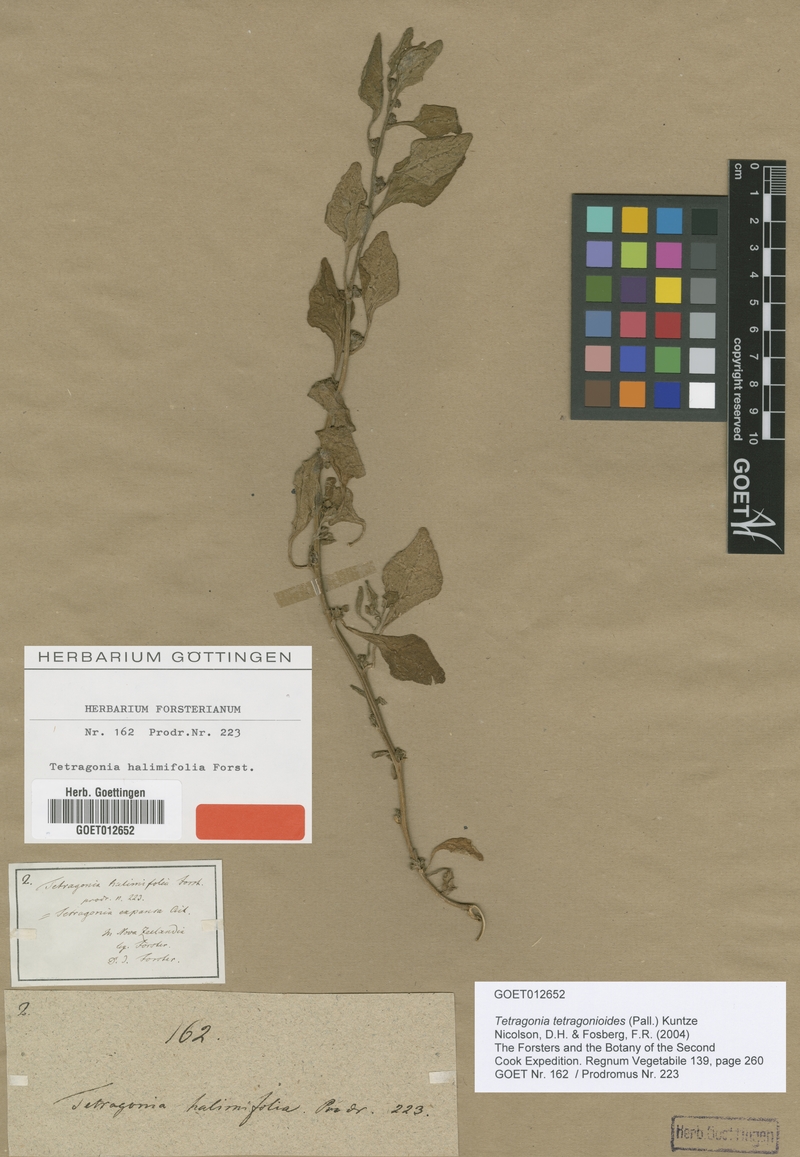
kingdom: Plantae
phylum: Tracheophyta
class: Magnoliopsida
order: Caryophyllales
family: Aizoaceae
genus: Tetragonia
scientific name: Tetragonia tetragonioides
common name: New zealand spinach
